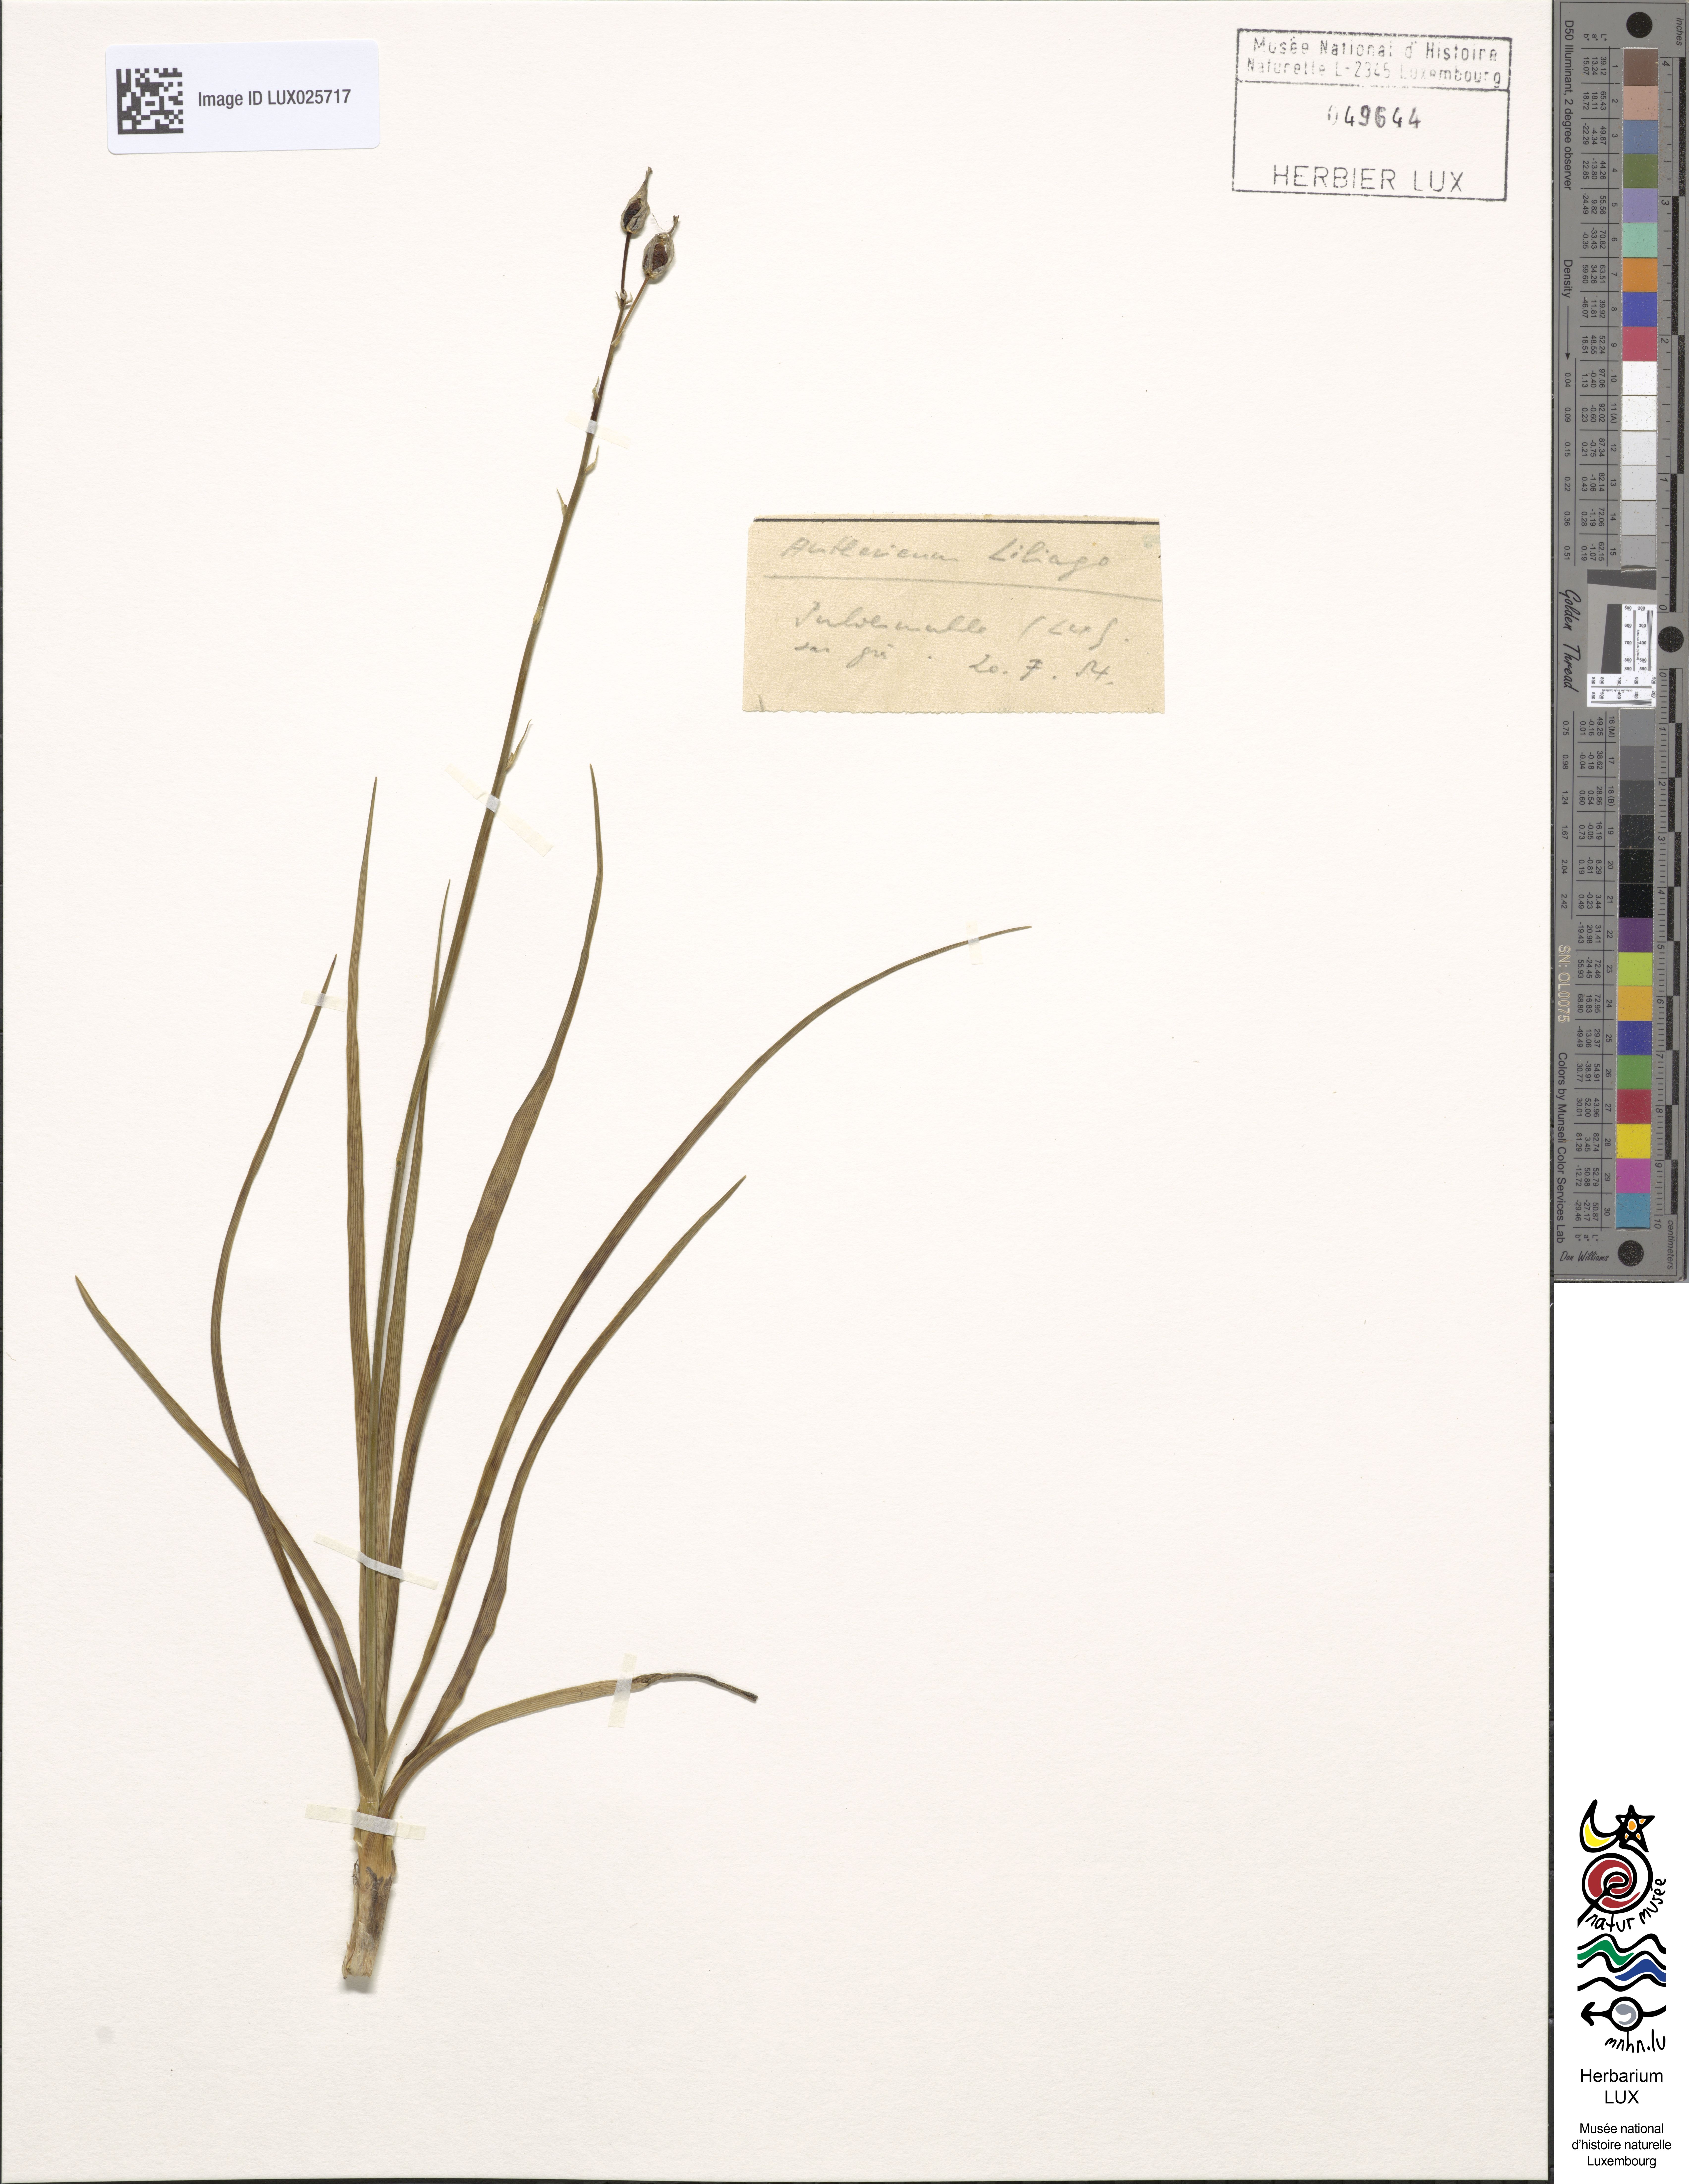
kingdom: Plantae
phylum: Tracheophyta
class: Liliopsida
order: Asparagales
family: Asparagaceae
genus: Anthericum
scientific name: Anthericum liliago
